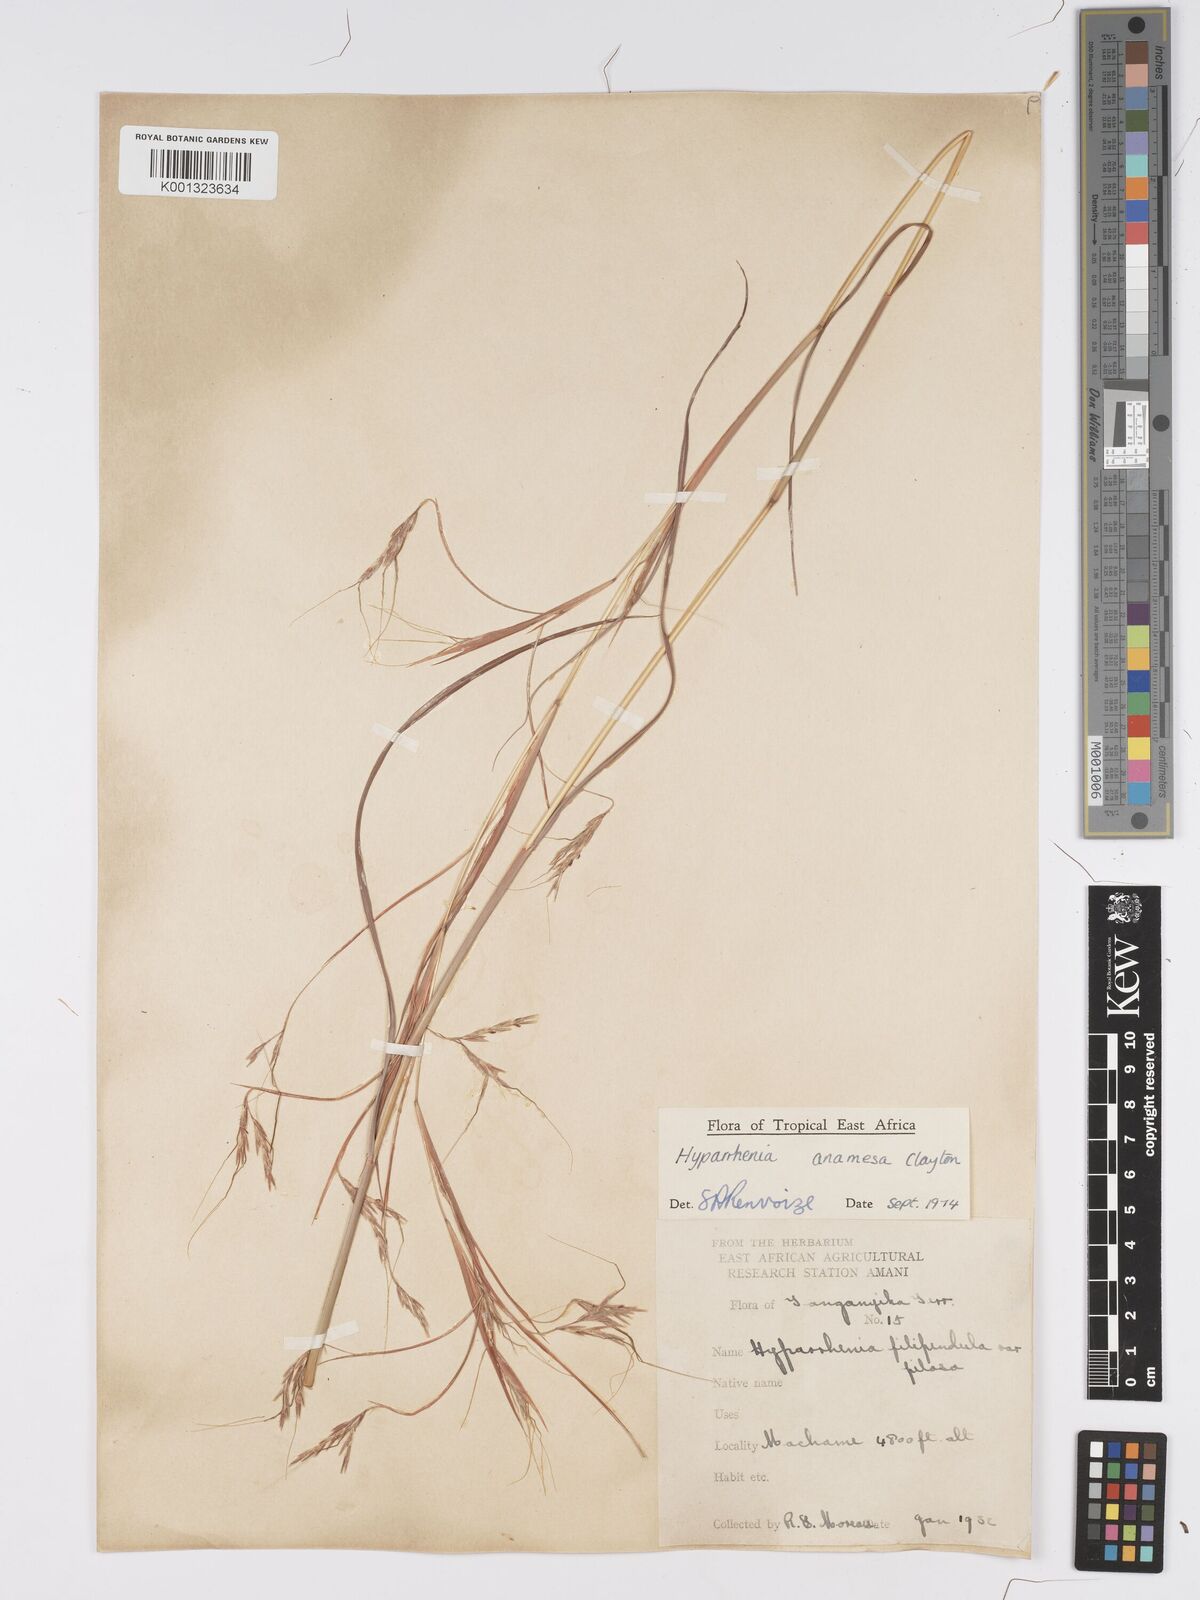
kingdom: Plantae
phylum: Tracheophyta
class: Liliopsida
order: Poales
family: Poaceae
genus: Hyparrhenia
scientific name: Hyparrhenia anamesa
